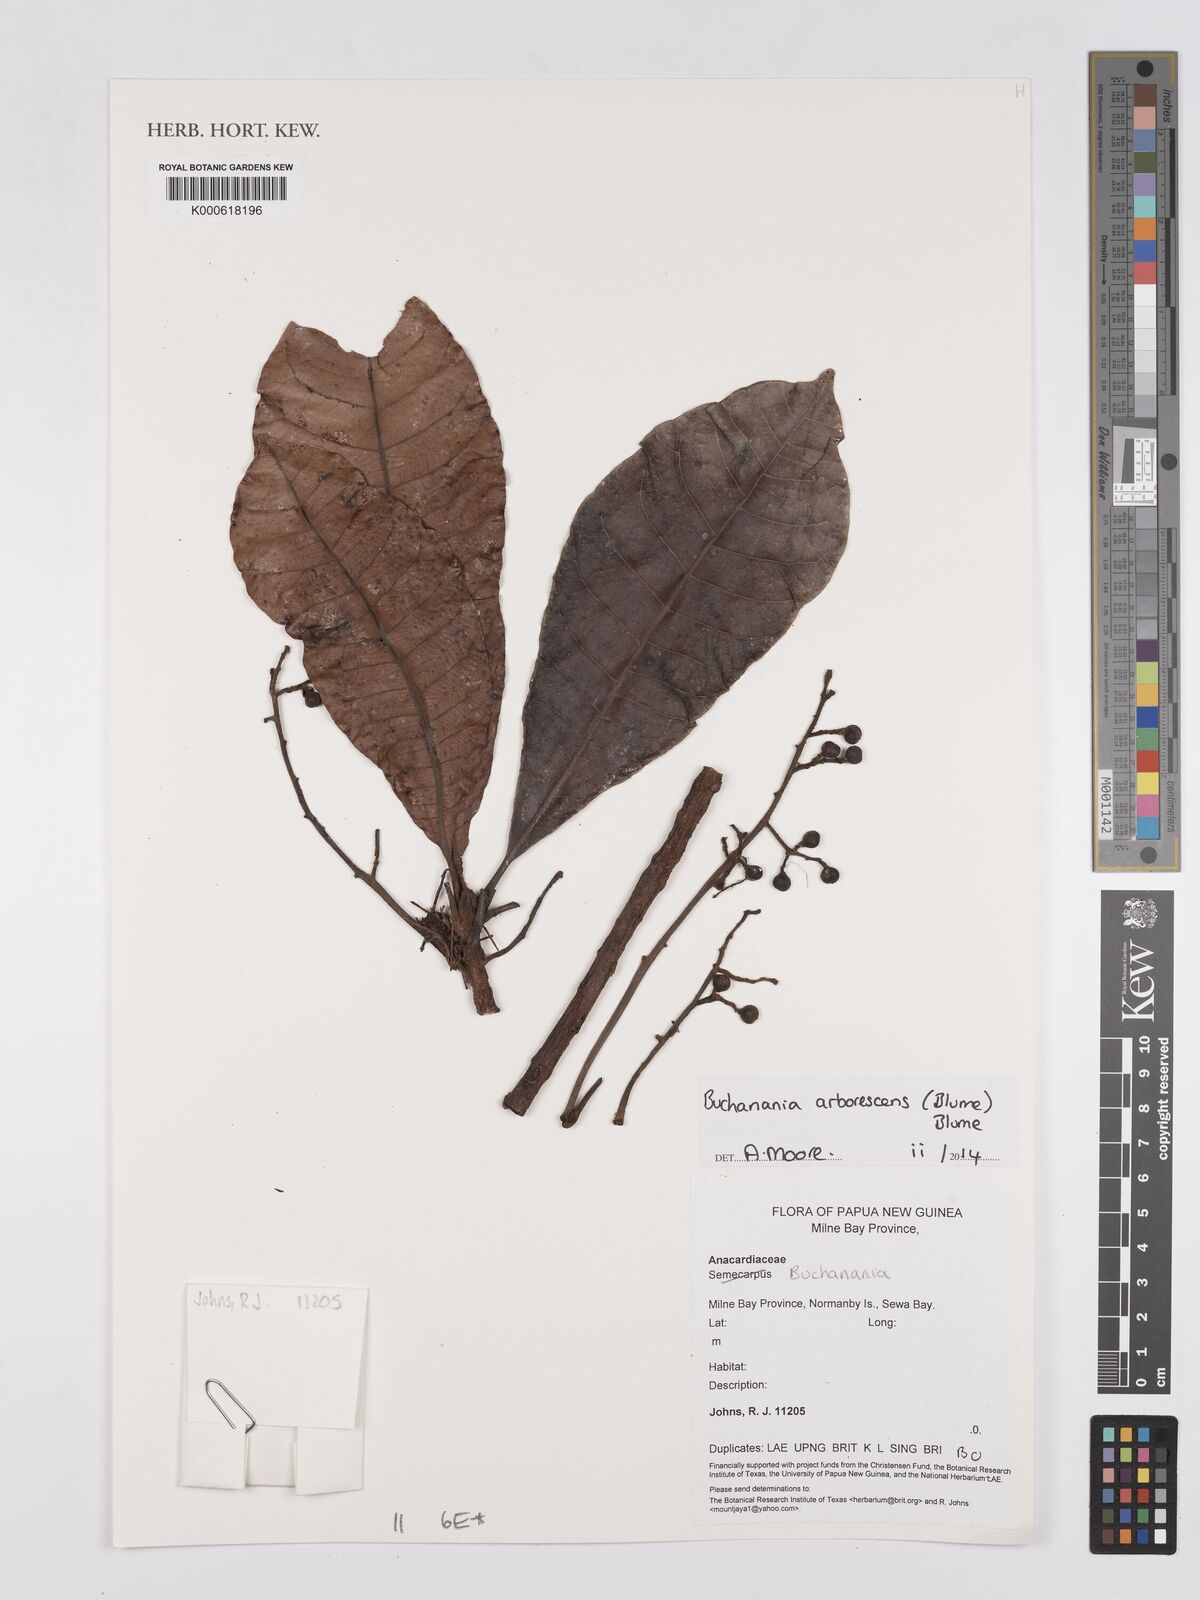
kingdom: Plantae
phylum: Tracheophyta
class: Magnoliopsida
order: Sapindales
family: Anacardiaceae
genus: Buchanania
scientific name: Buchanania arborescens
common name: Sparrow’s mango
